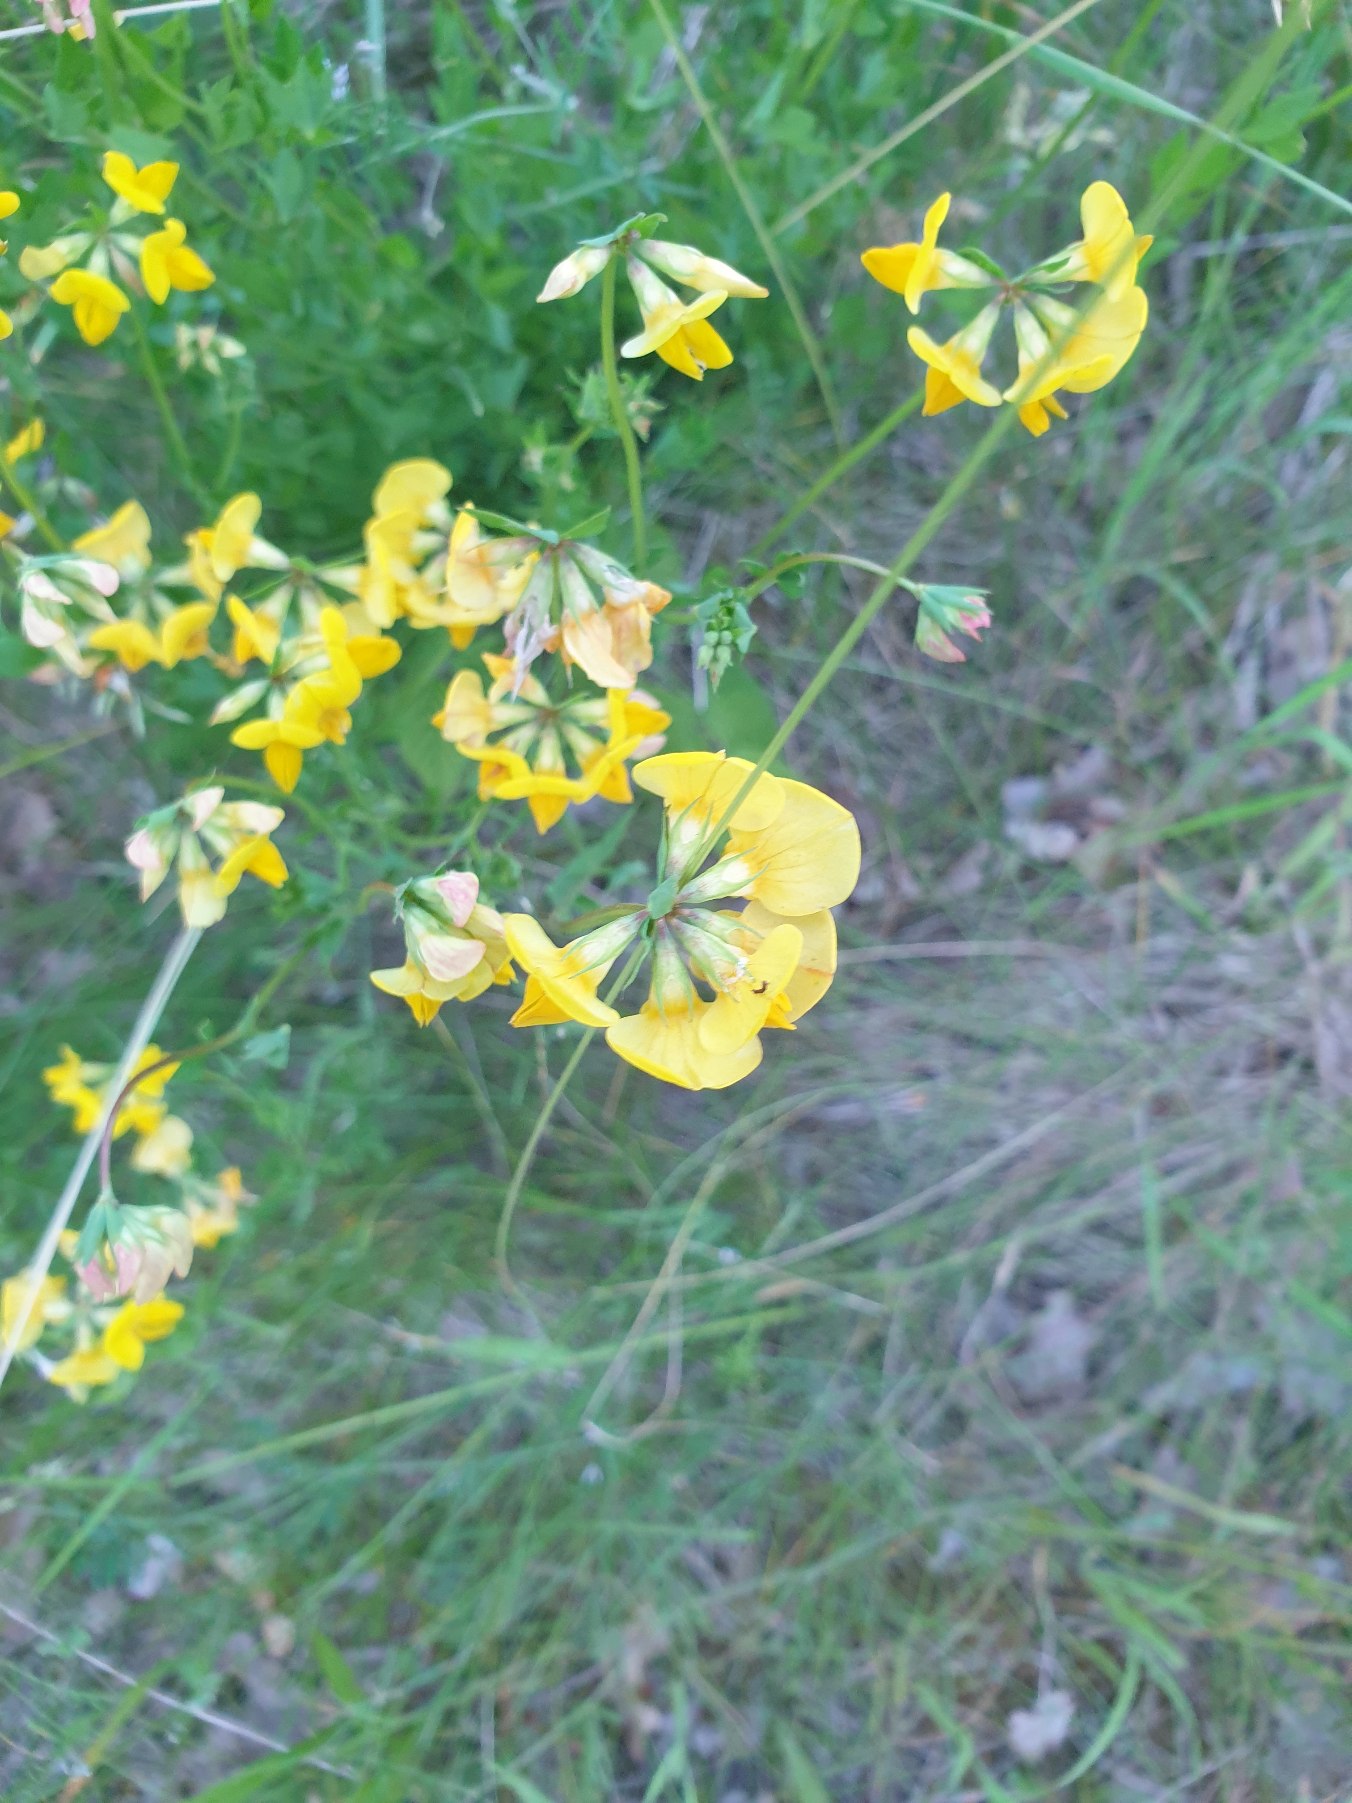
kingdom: Plantae
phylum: Tracheophyta
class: Magnoliopsida
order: Fabales
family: Fabaceae
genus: Lotus
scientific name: Lotus corniculatus
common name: Almindelig kællingetand
